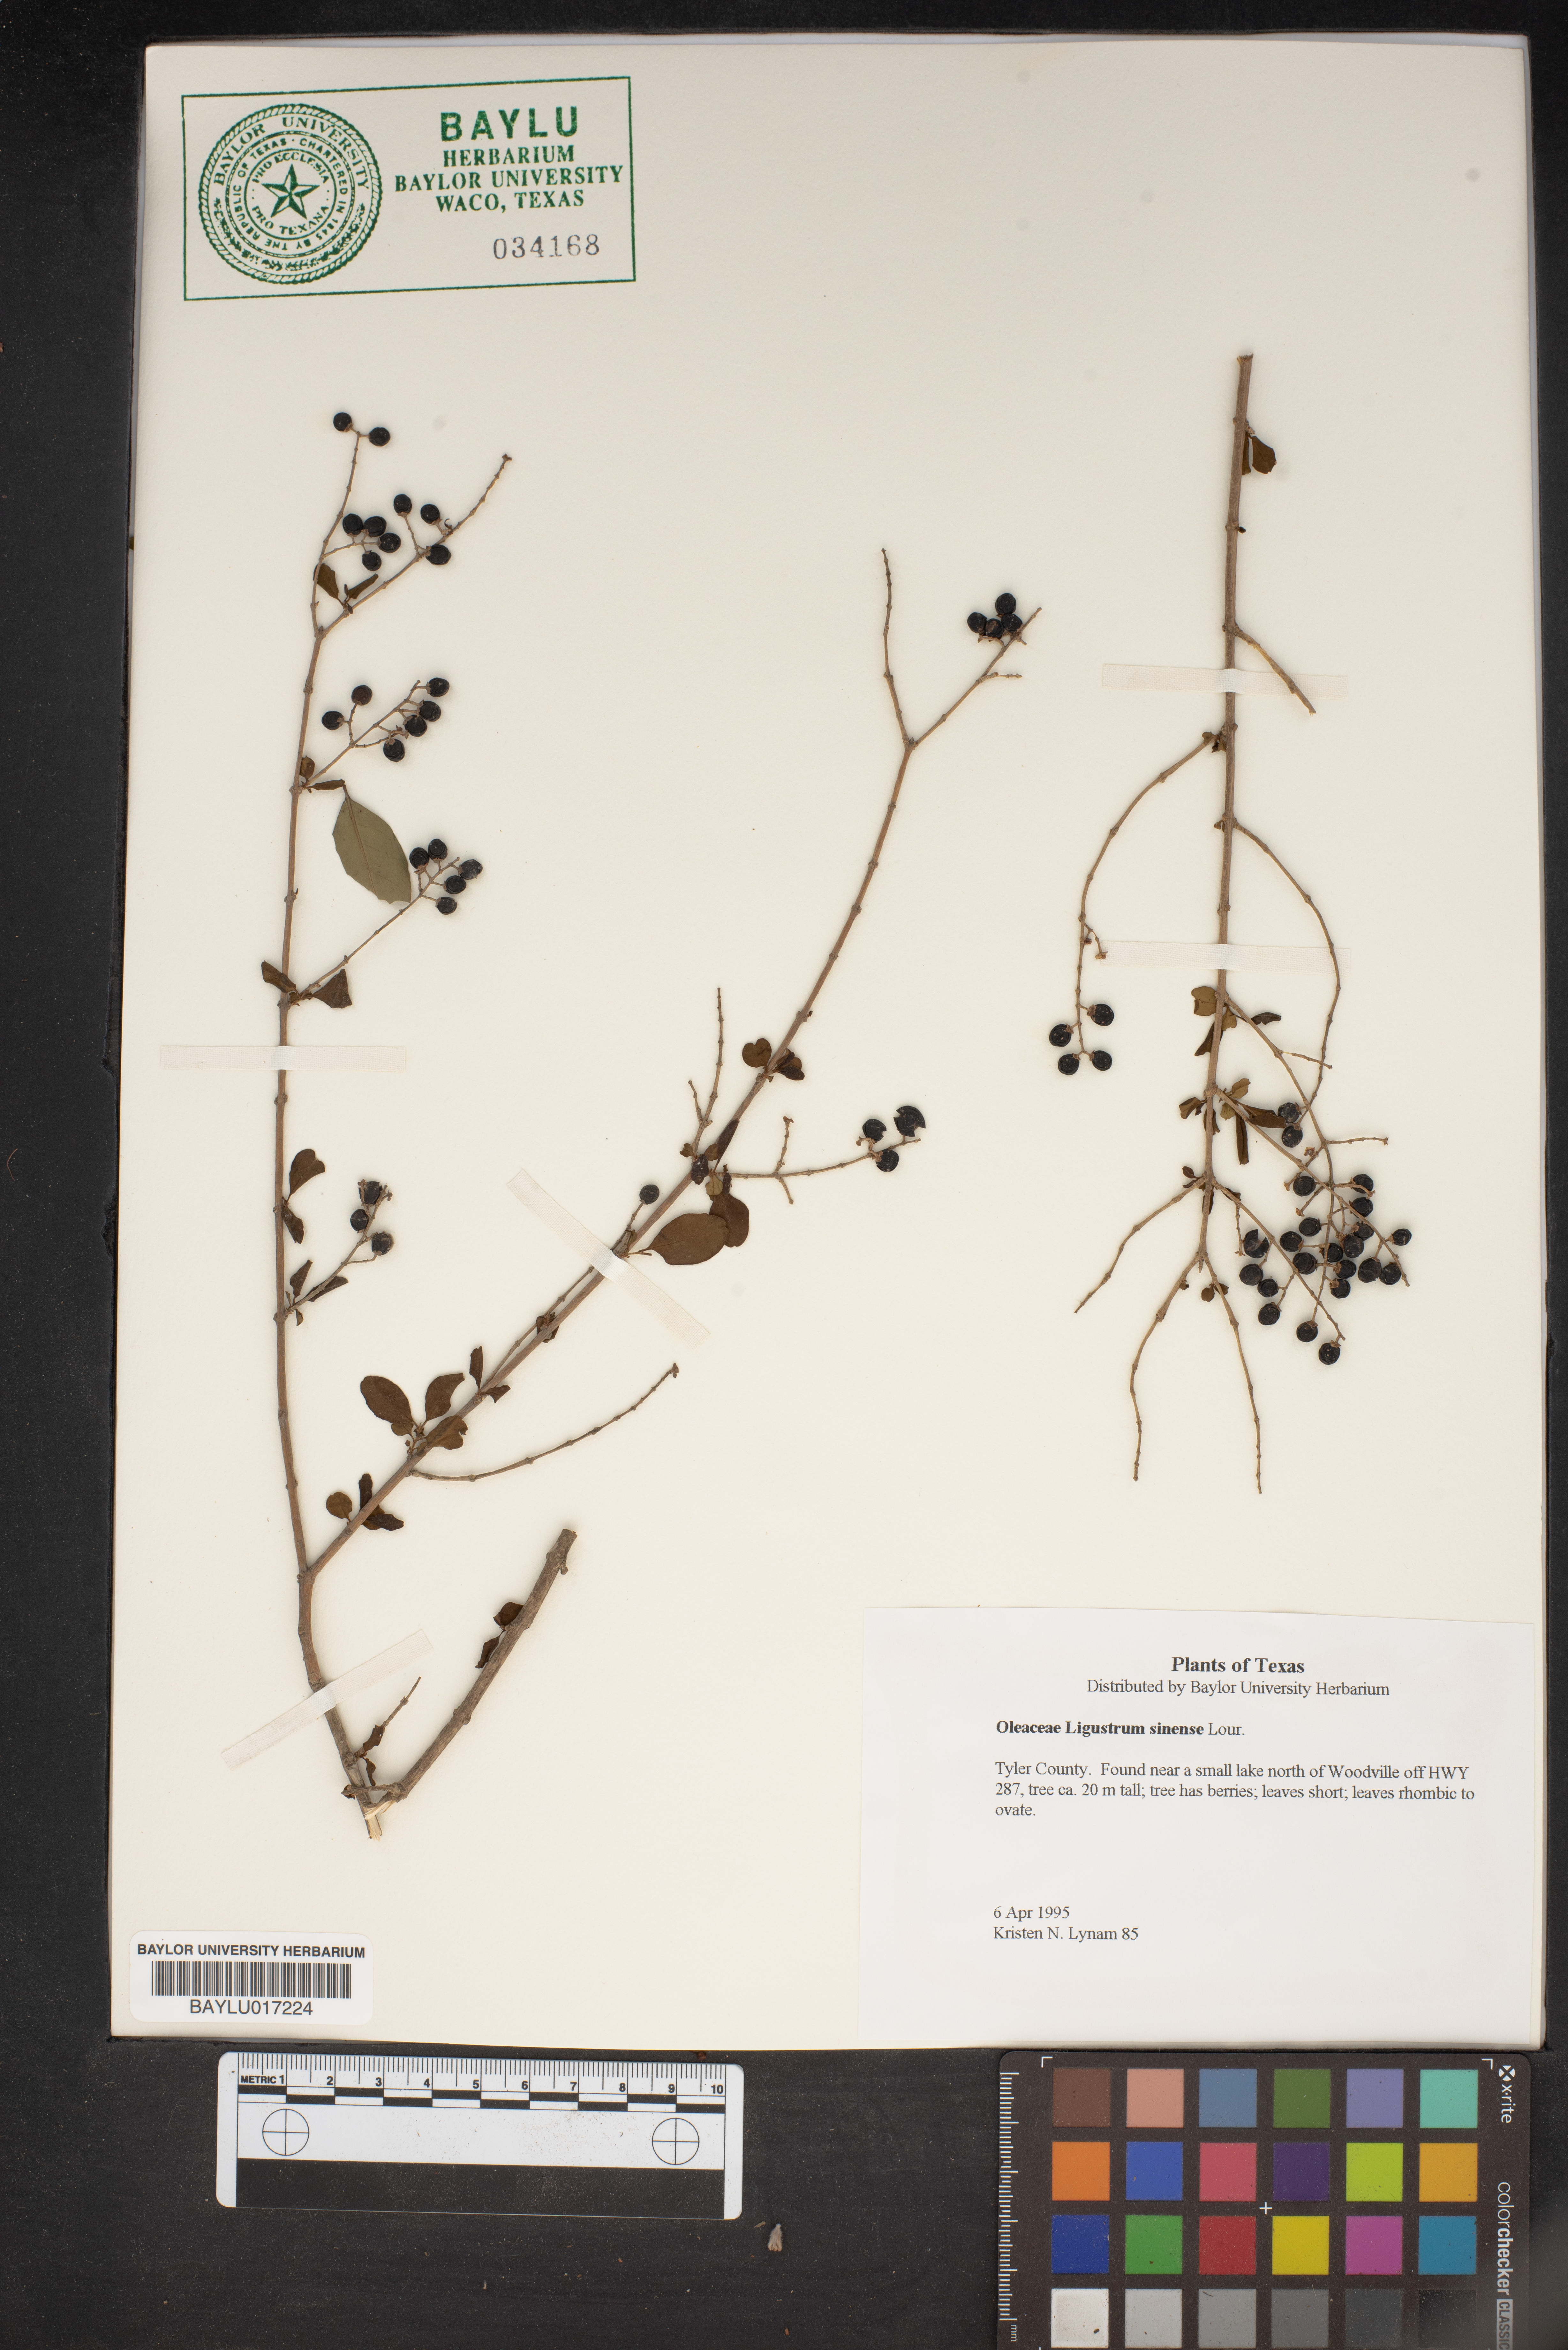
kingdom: Plantae
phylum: Tracheophyta
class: Magnoliopsida
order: Lamiales
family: Oleaceae
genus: Ligustrum
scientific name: Ligustrum sinense
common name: Chinese privet
